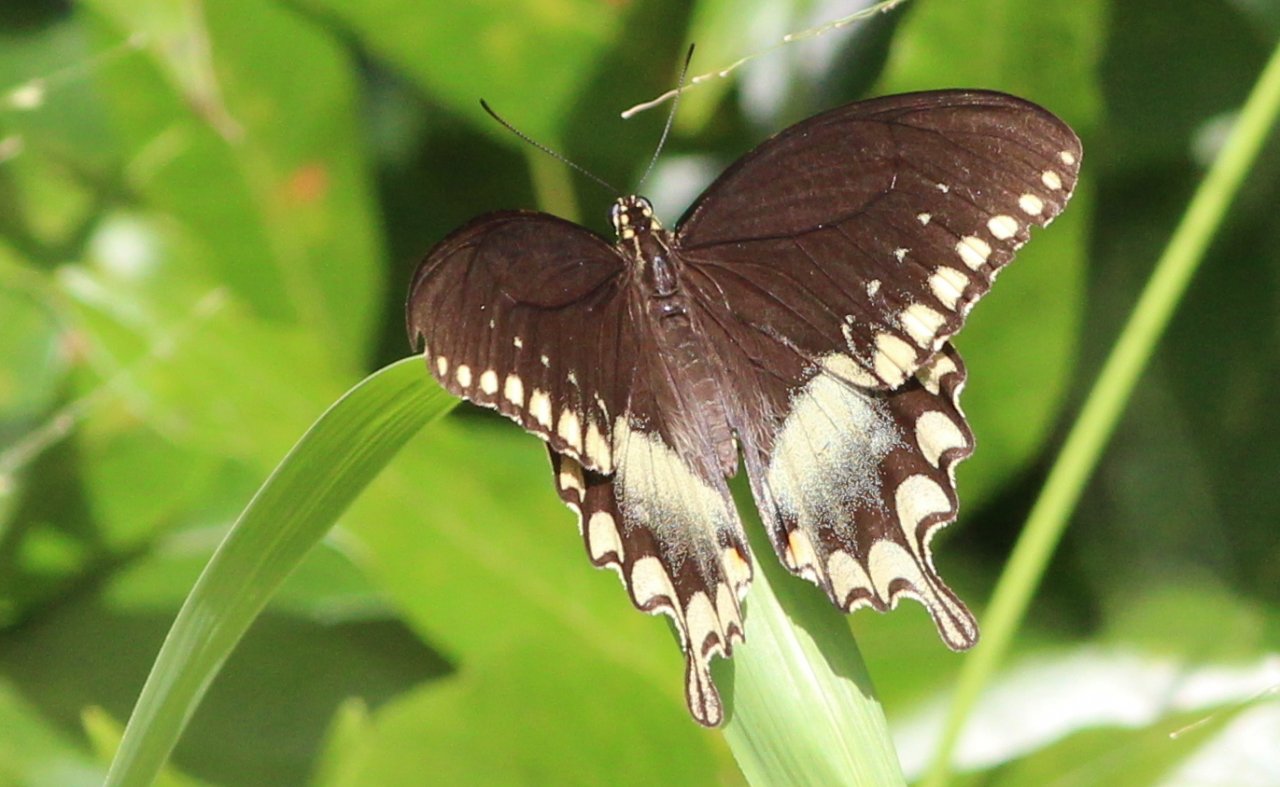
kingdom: Animalia
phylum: Arthropoda
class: Insecta
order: Lepidoptera
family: Papilionidae
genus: Pterourus
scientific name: Pterourus troilus
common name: Spicebush Swallowtail
